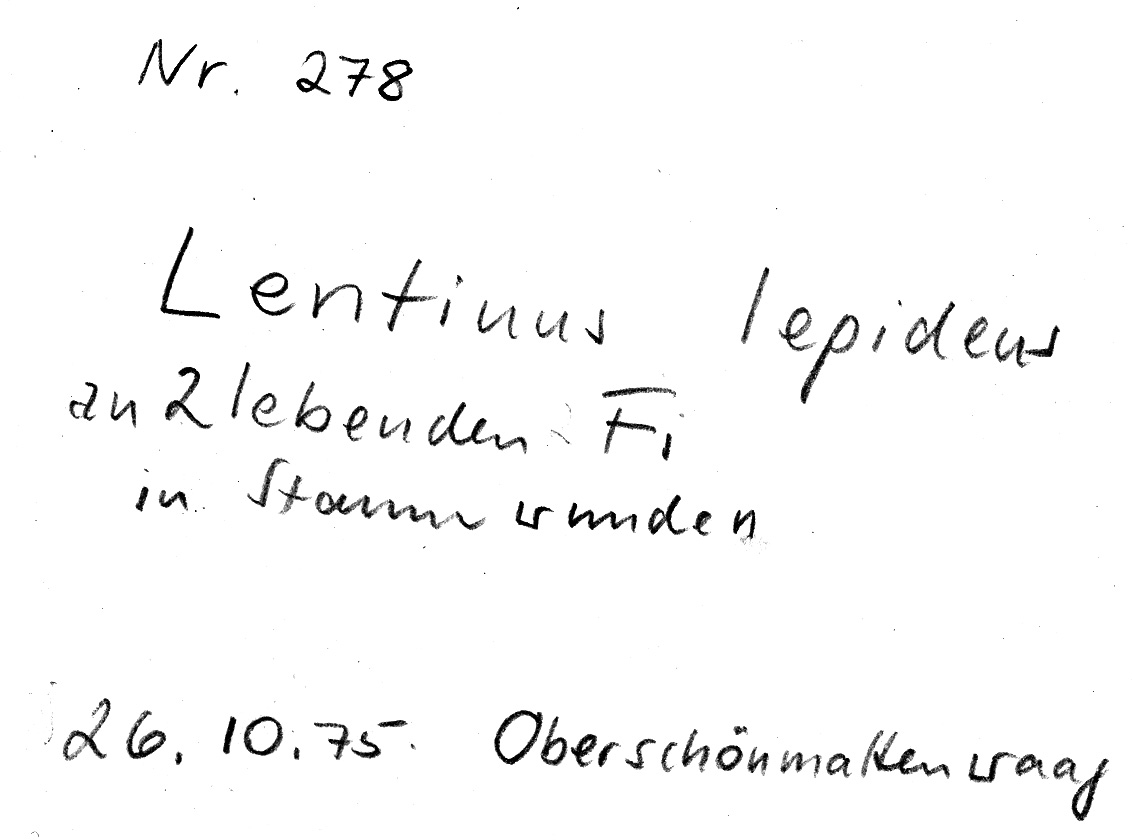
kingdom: Plantae
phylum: Tracheophyta
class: Pinopsida
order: Pinales
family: Pinaceae
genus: Picea
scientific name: Picea
